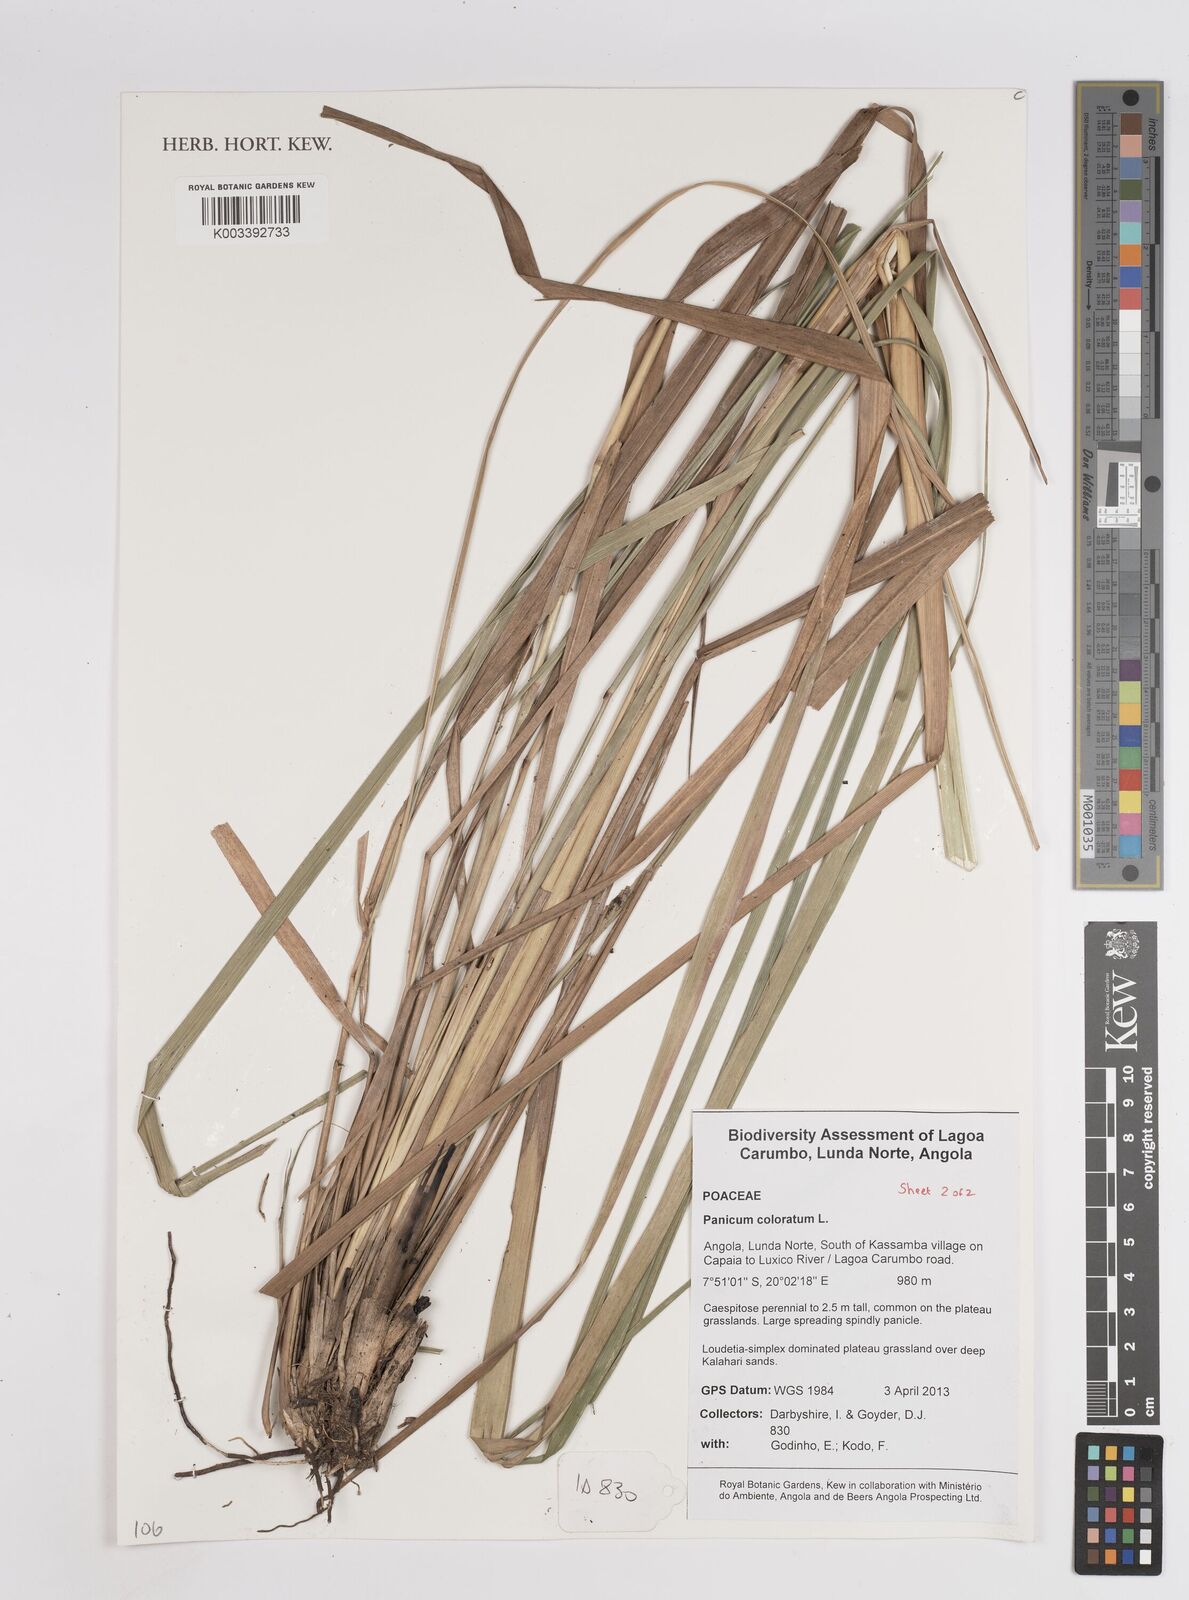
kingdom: Plantae
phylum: Tracheophyta
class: Liliopsida
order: Poales
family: Poaceae
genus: Panicum
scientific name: Panicum coloratum
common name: Kleingrass
